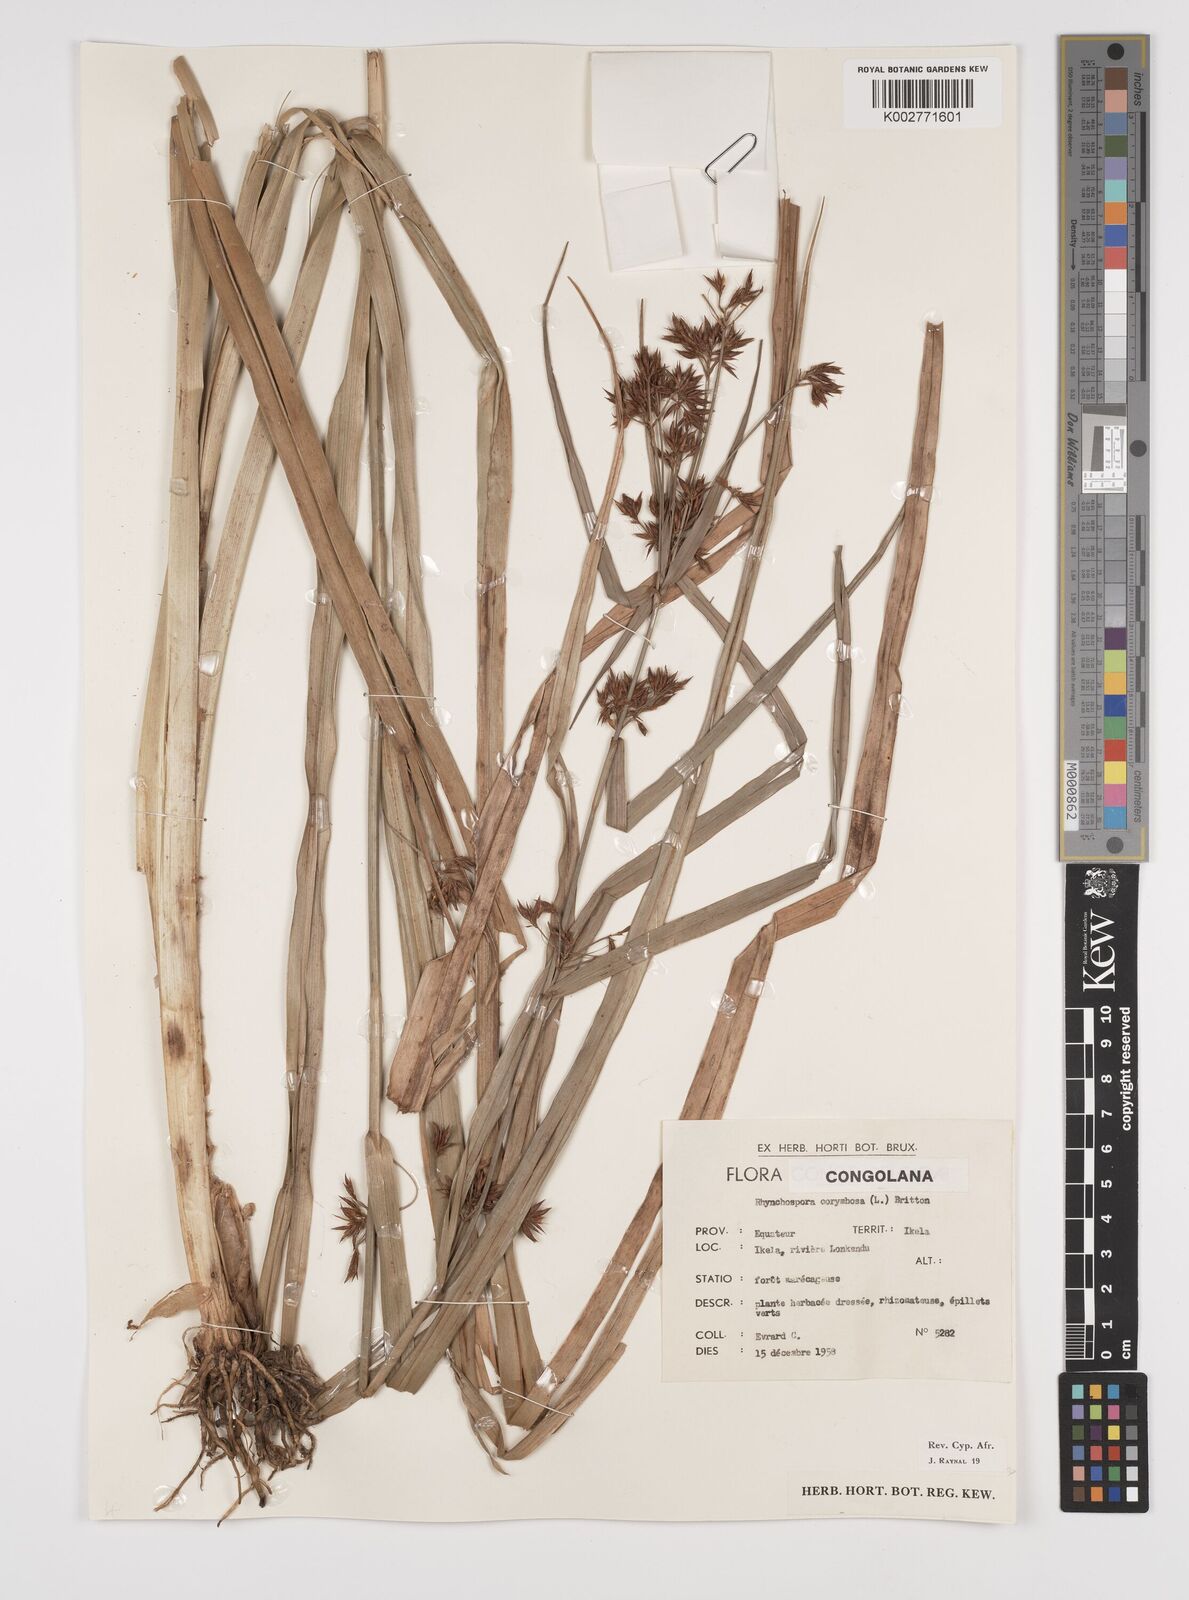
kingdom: Plantae
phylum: Tracheophyta
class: Liliopsida
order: Poales
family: Cyperaceae
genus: Rhynchospora
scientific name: Rhynchospora corymbosa
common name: Golden beak sedge
